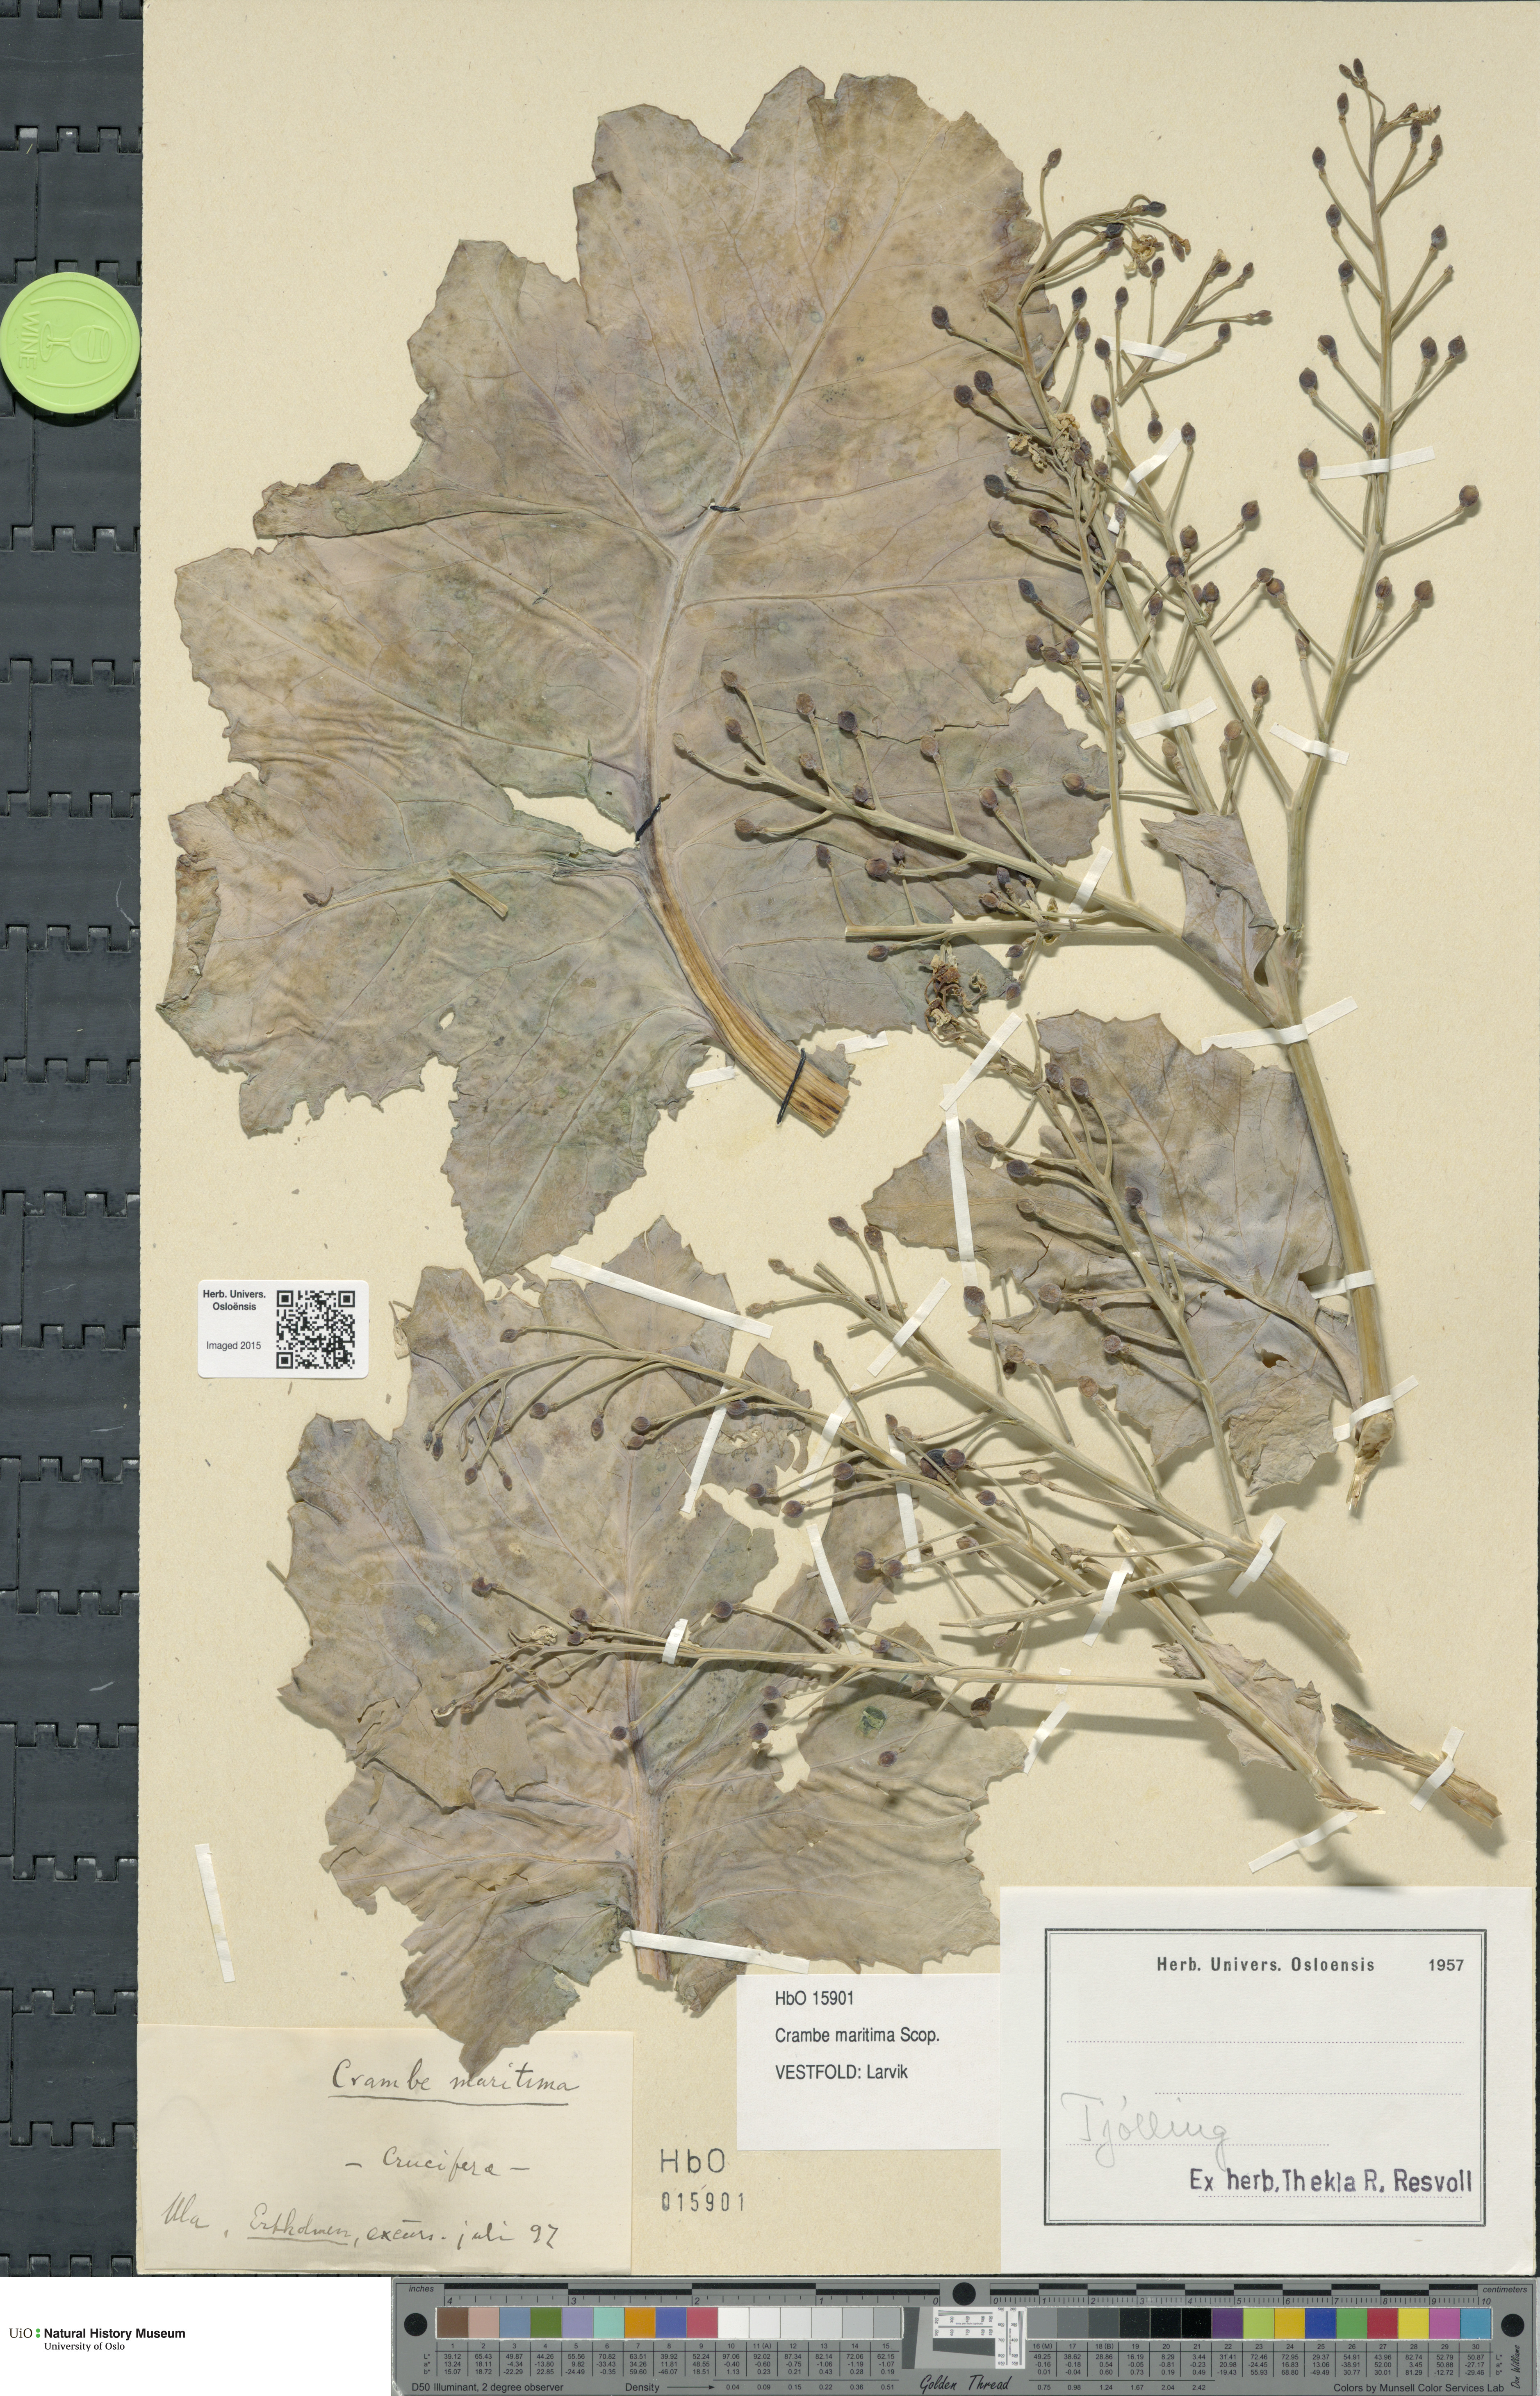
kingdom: Plantae
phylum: Tracheophyta
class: Magnoliopsida
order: Brassicales
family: Brassicaceae
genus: Crambe
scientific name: Crambe maritima
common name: Sea-kale
